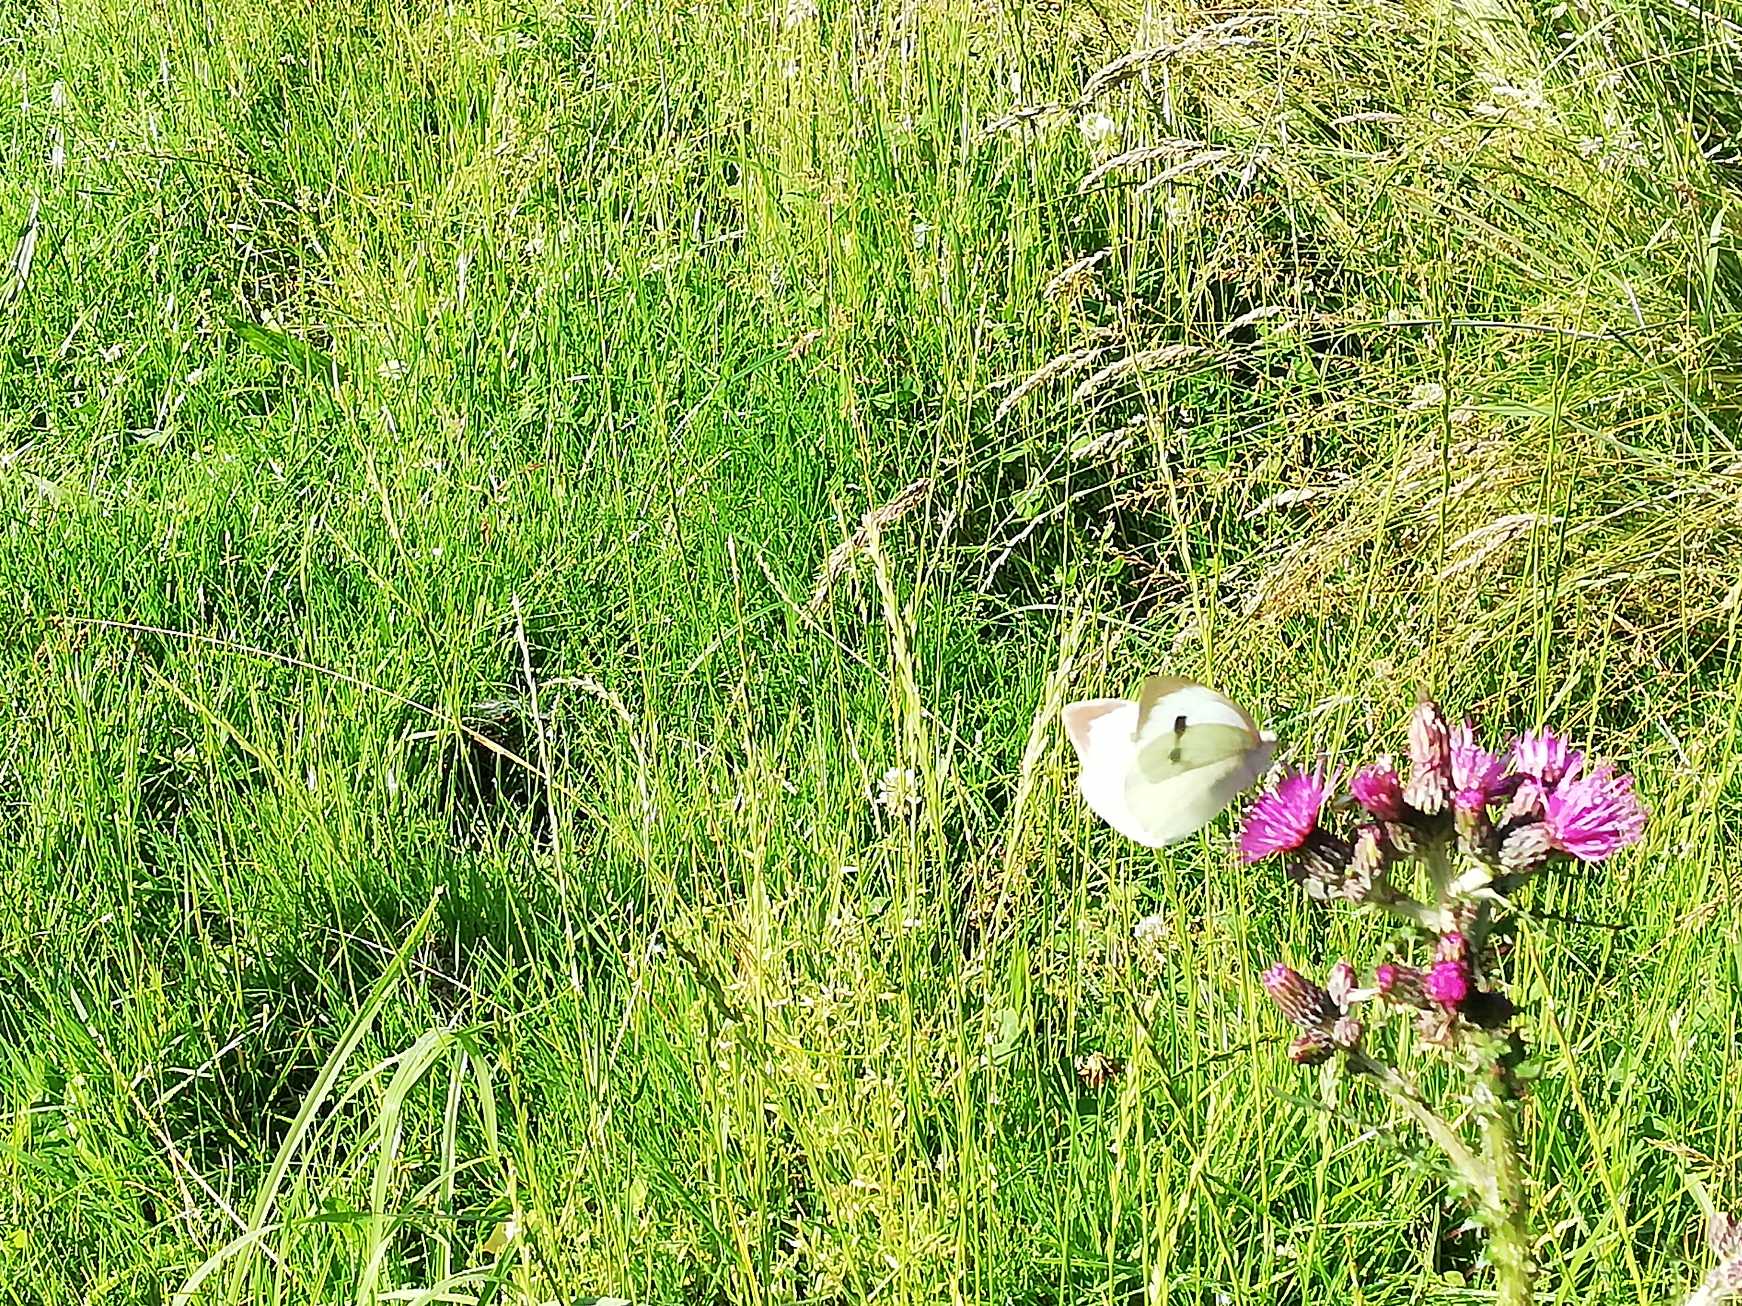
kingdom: Animalia
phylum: Arthropoda
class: Insecta
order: Lepidoptera
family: Pieridae
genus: Pieris
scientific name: Pieris brassicae
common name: Stor kålsommerfugl
